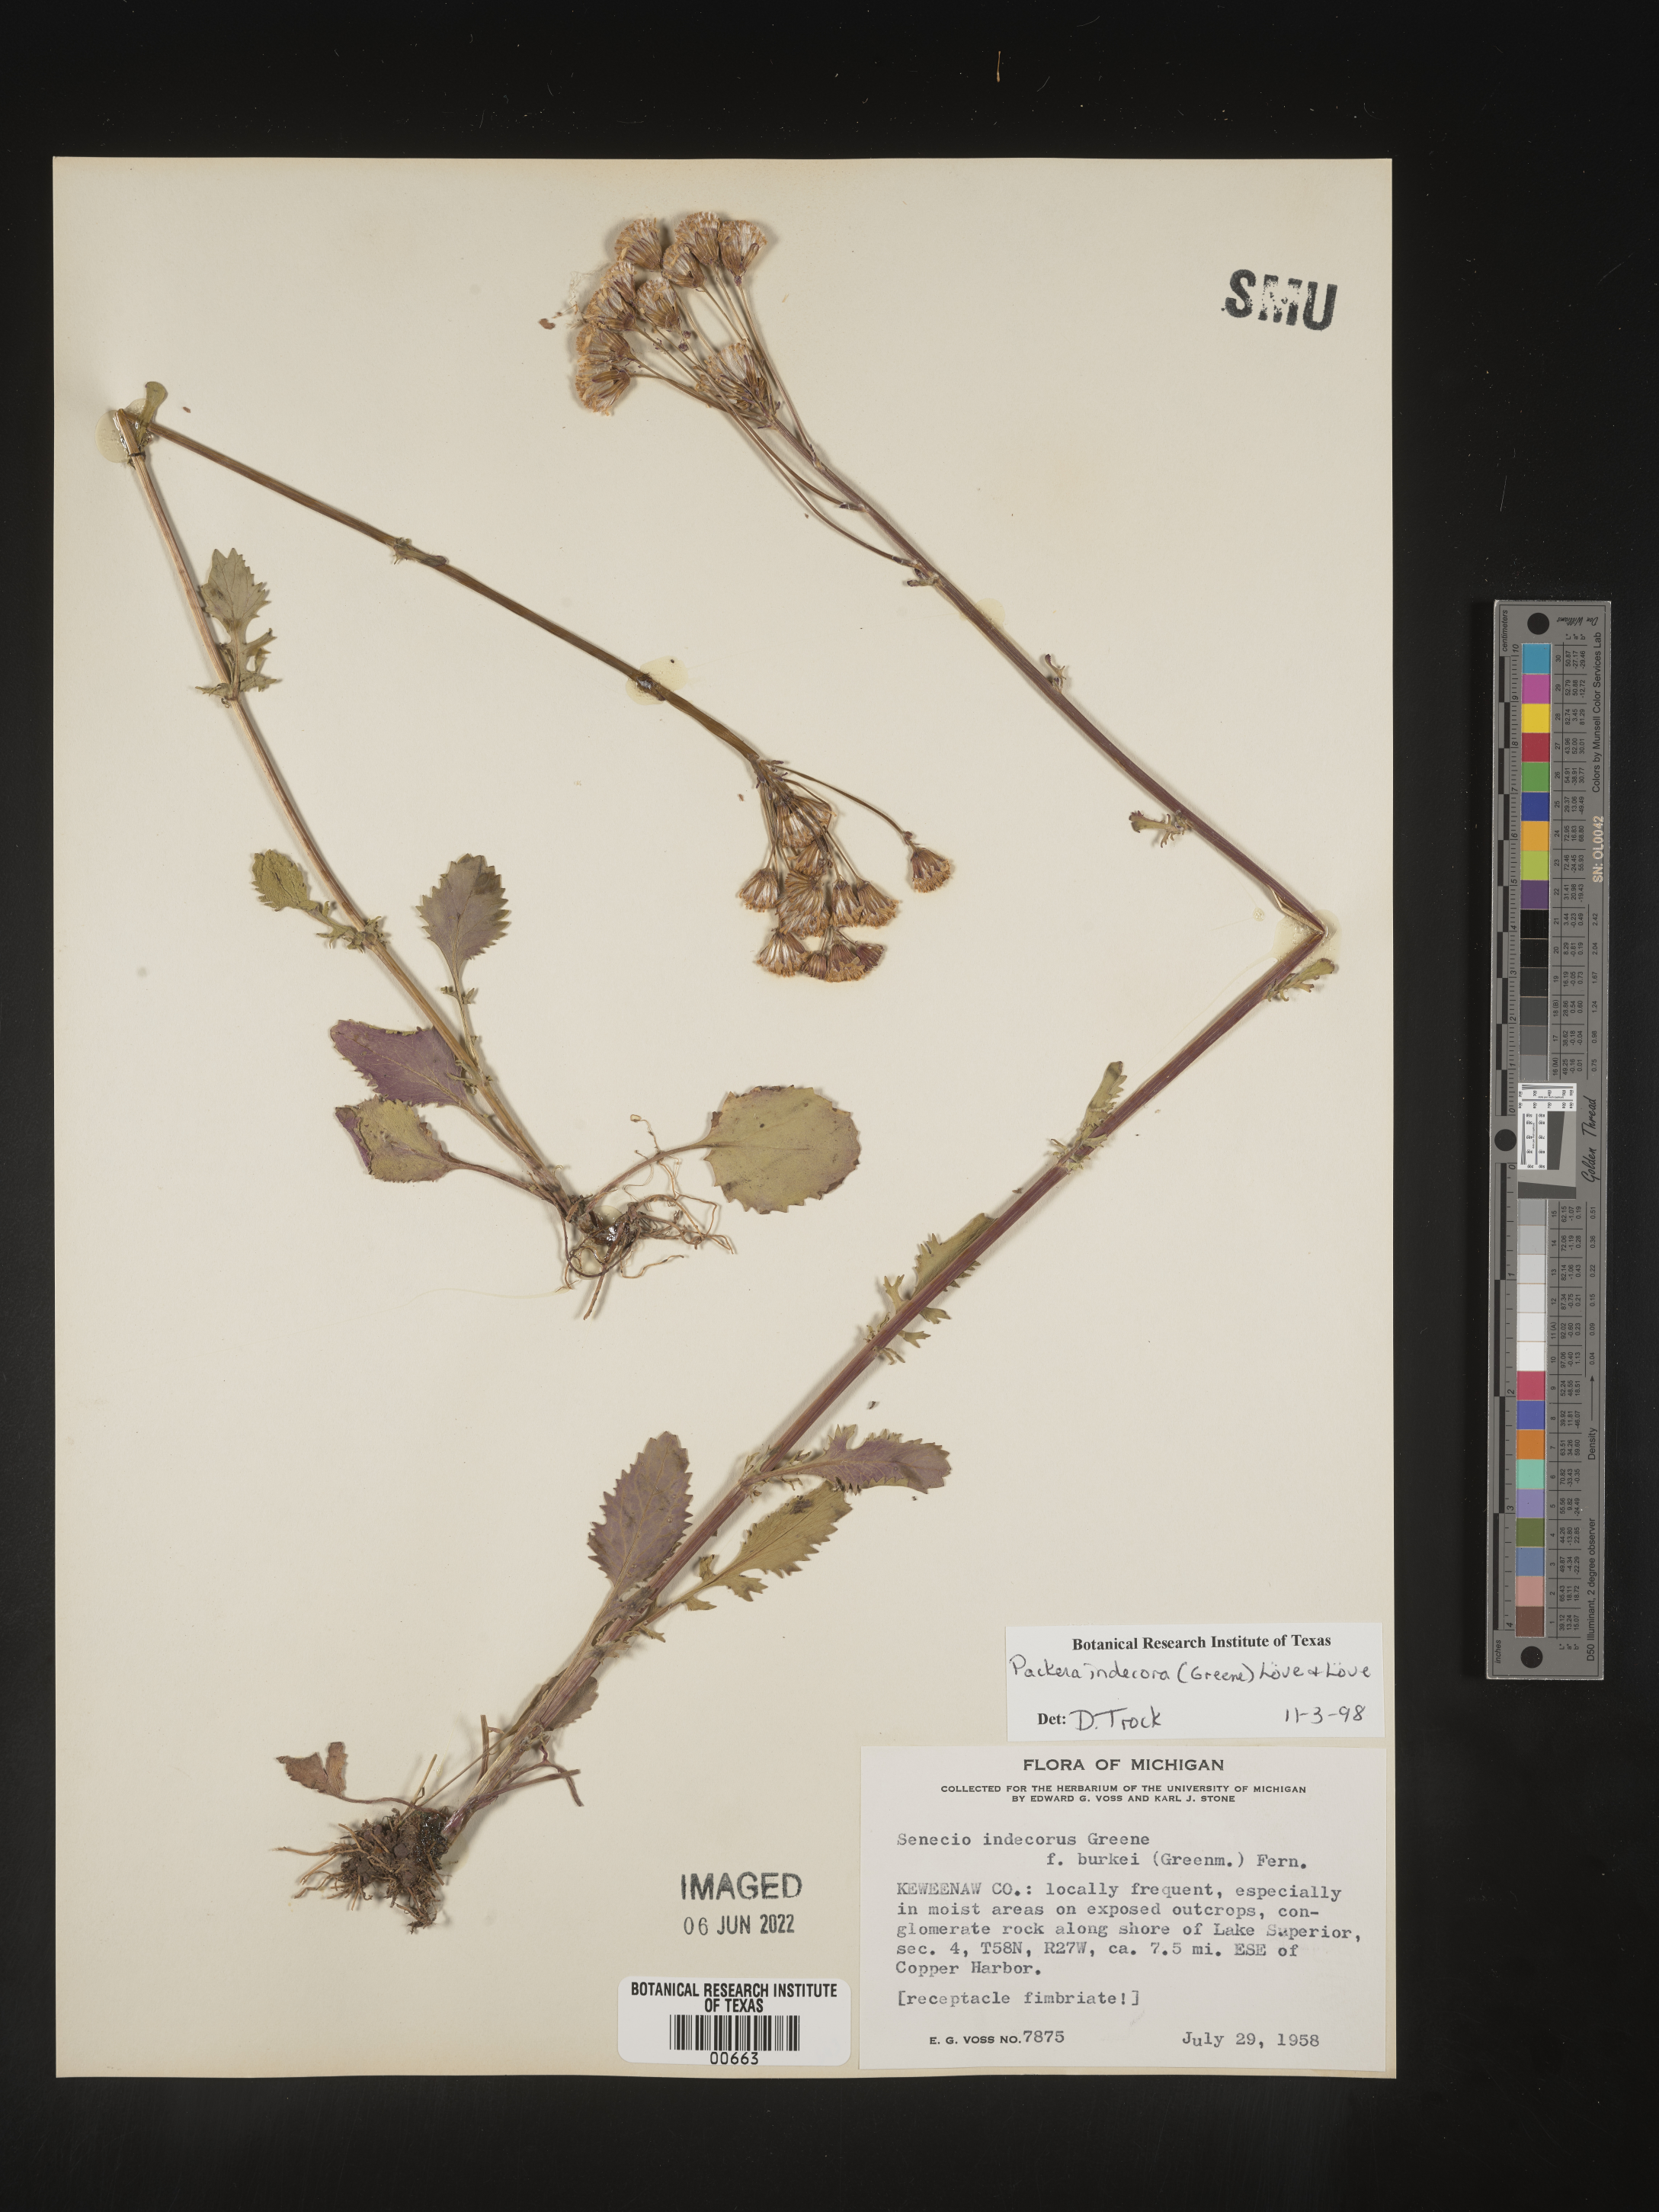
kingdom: Plantae
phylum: Tracheophyta
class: Magnoliopsida
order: Asterales
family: Asteraceae
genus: Packera
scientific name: Packera
